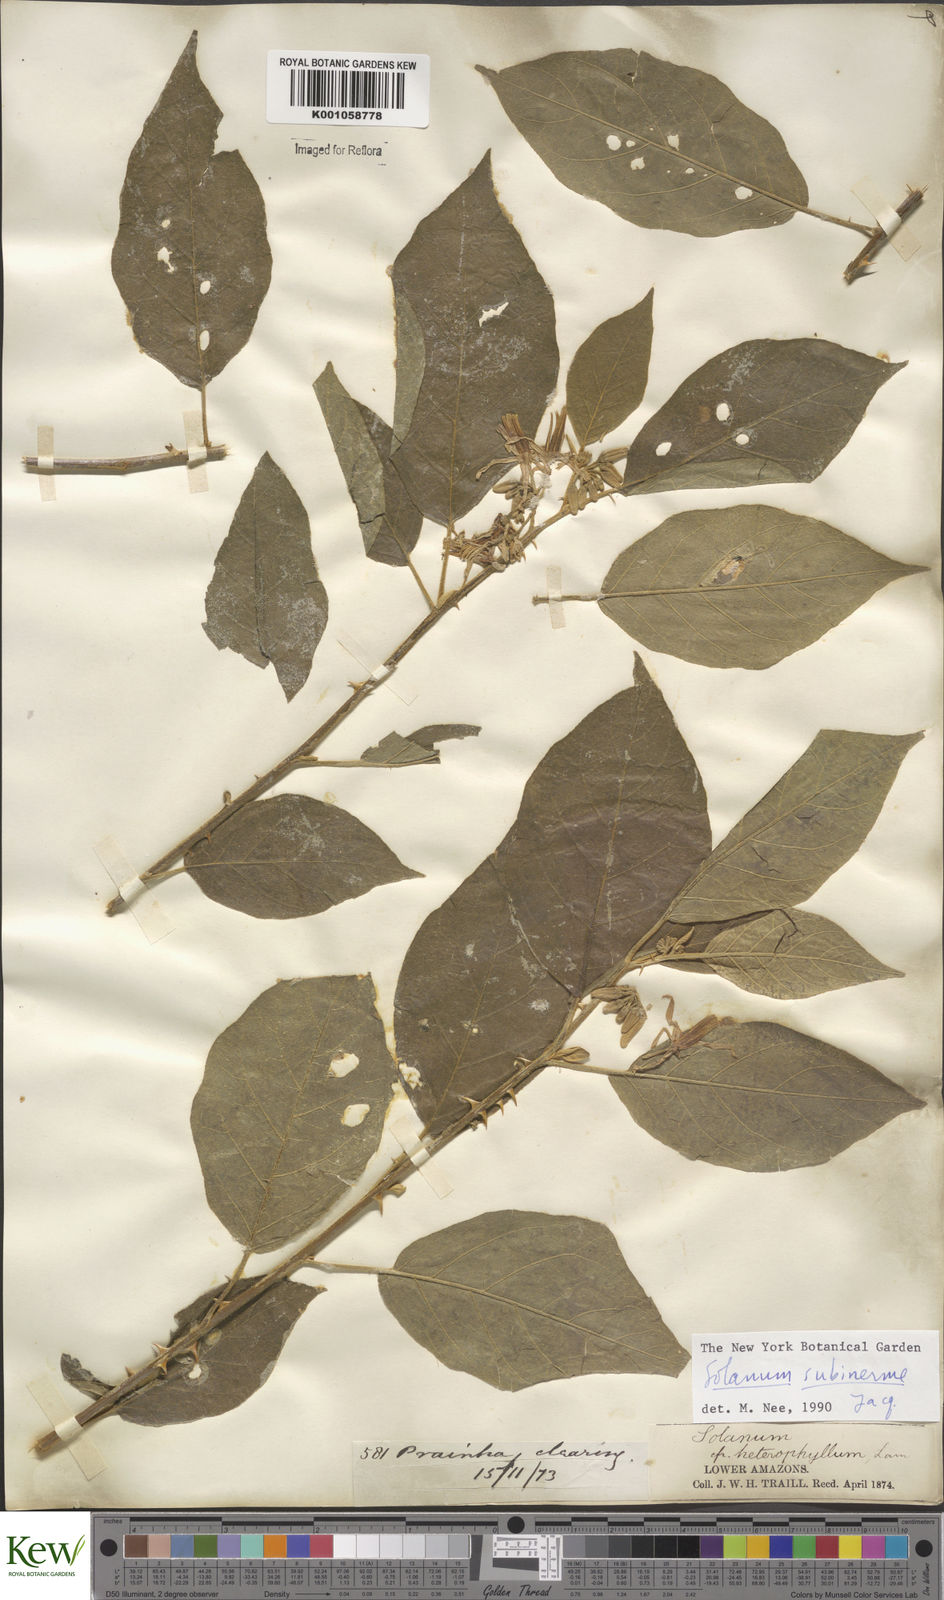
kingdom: Plantae
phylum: Tracheophyta
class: Magnoliopsida
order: Solanales
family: Solanaceae
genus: Solanum
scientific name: Solanum subinerme
